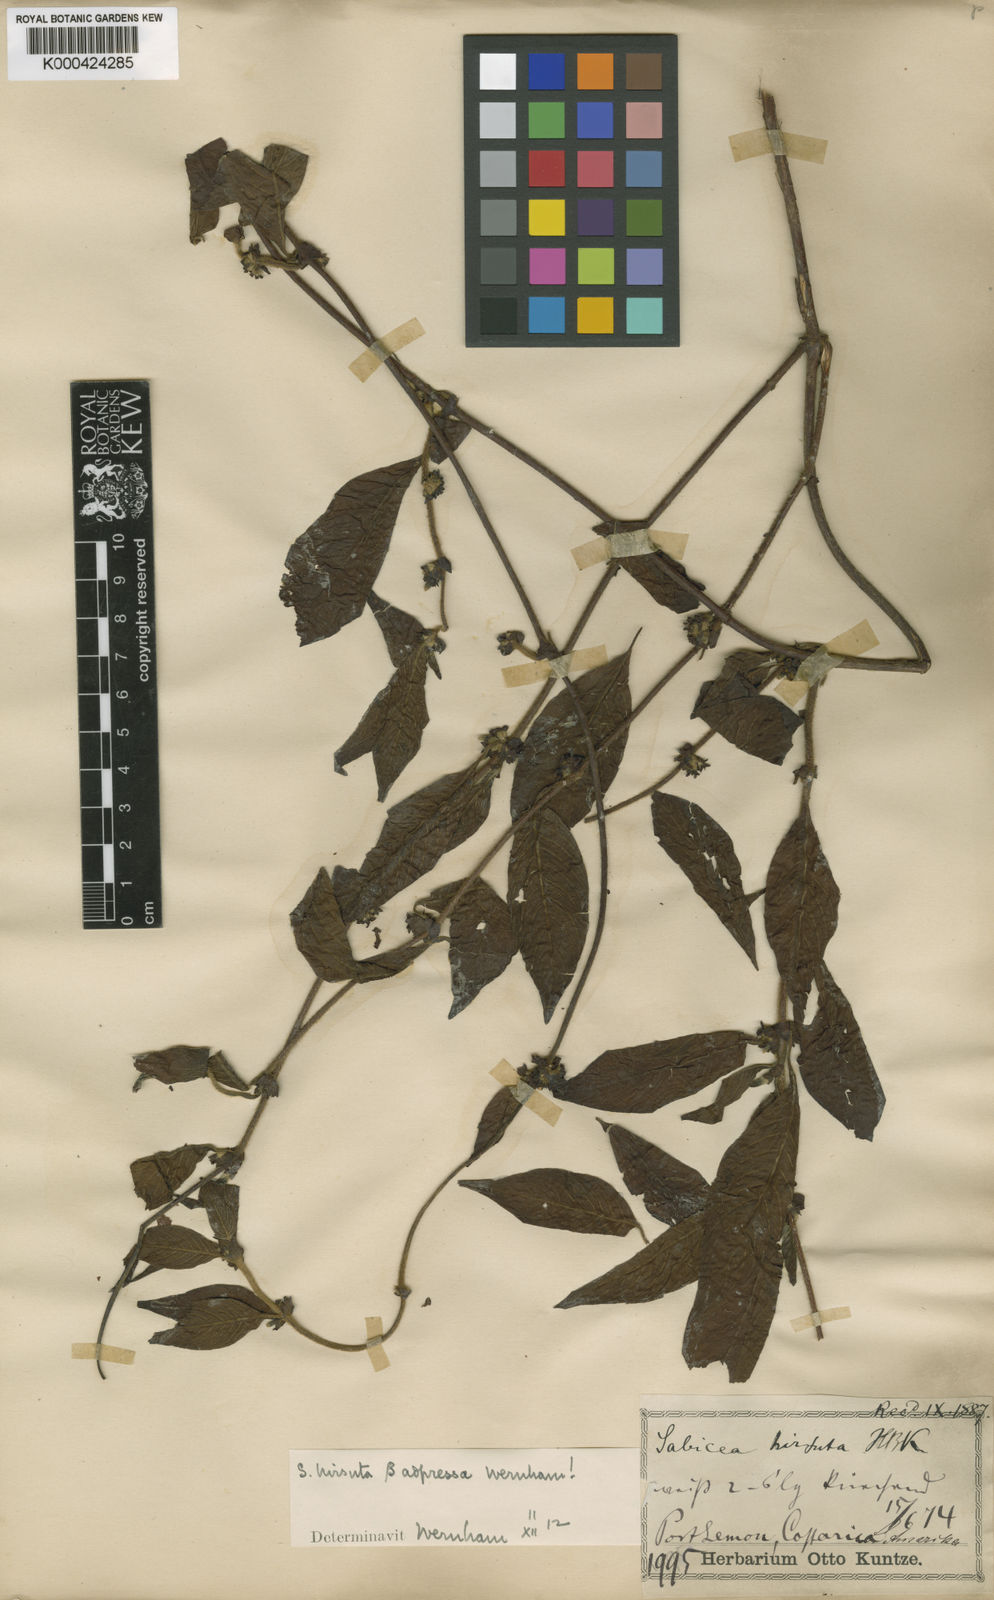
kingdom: Plantae
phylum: Tracheophyta
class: Magnoliopsida
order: Gentianales
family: Rubiaceae
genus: Sabicea
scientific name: Sabicea villosa
